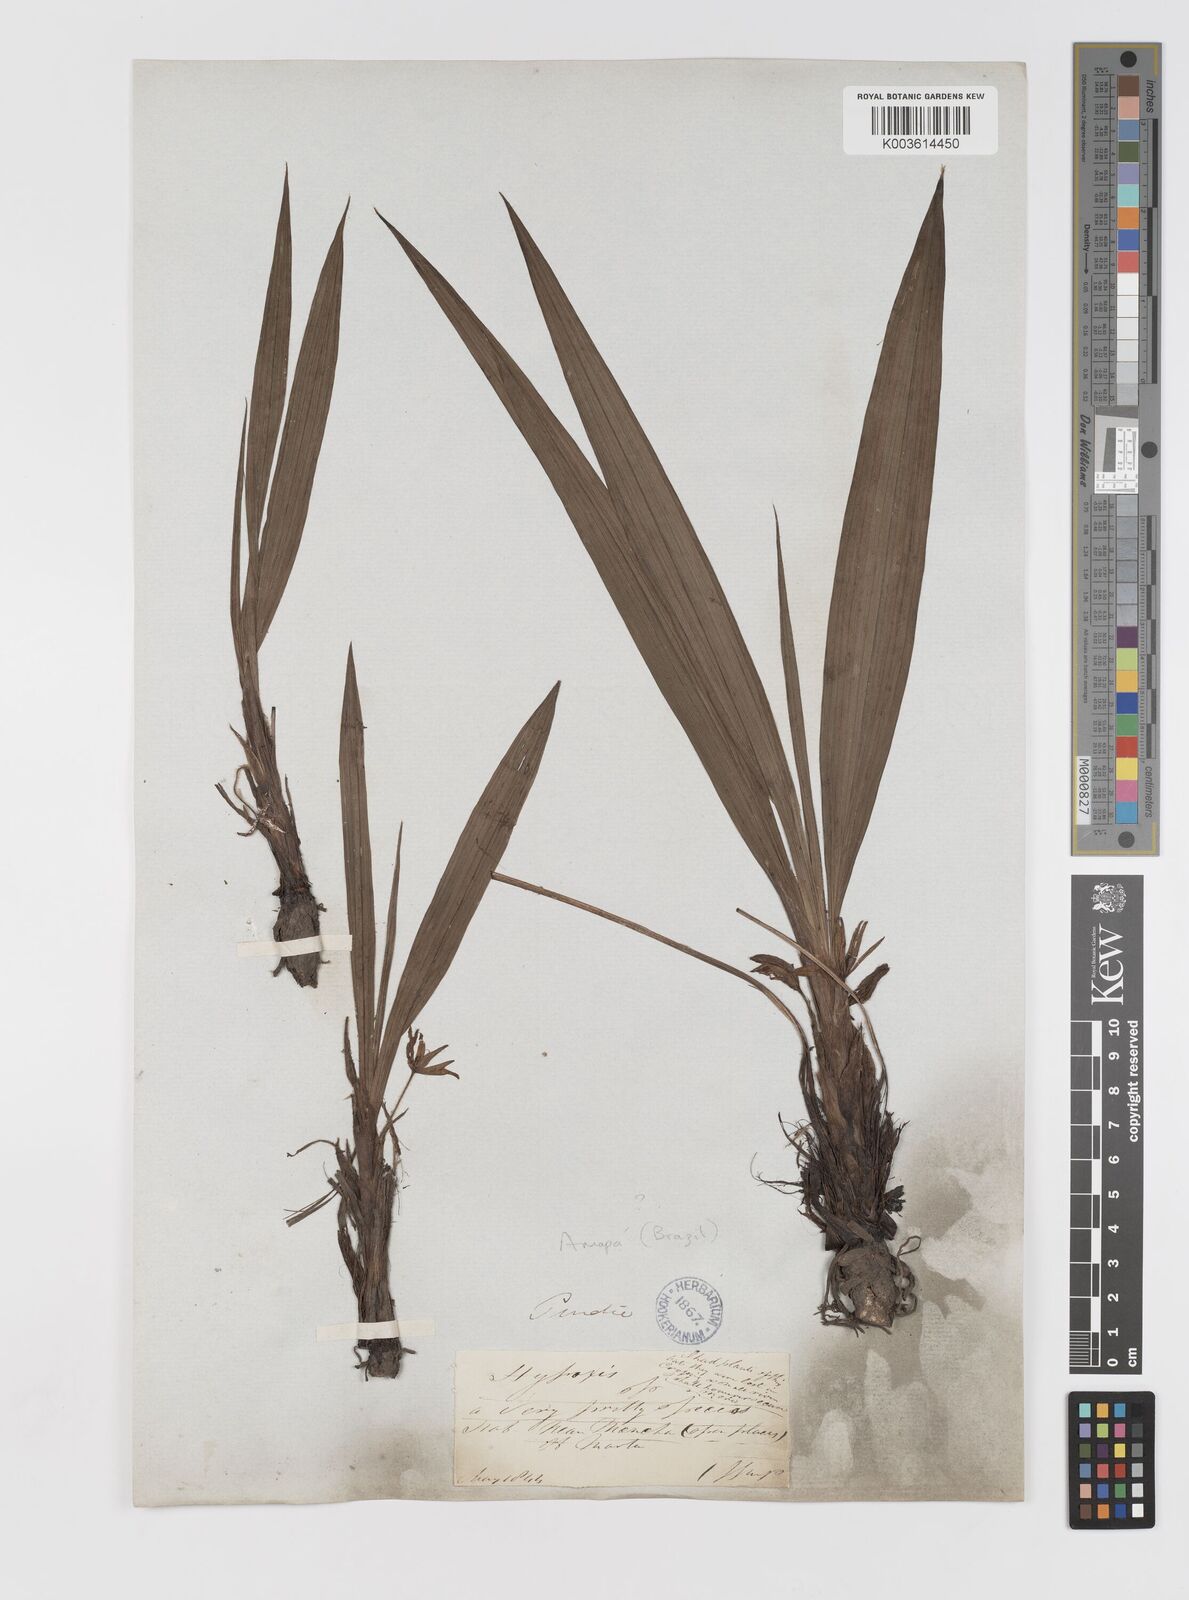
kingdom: Plantae
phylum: Tracheophyta
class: Liliopsida
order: Asparagales
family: Hypoxidaceae
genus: Curculigo
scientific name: Curculigo scorzonerifolia
